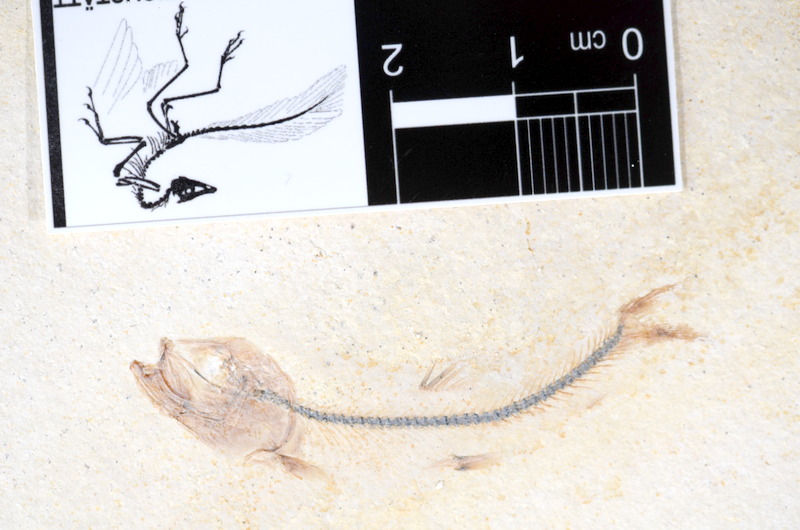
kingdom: Animalia
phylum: Chordata
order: Salmoniformes
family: Orthogonikleithridae
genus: Orthogonikleithrus
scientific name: Orthogonikleithrus hoelli
